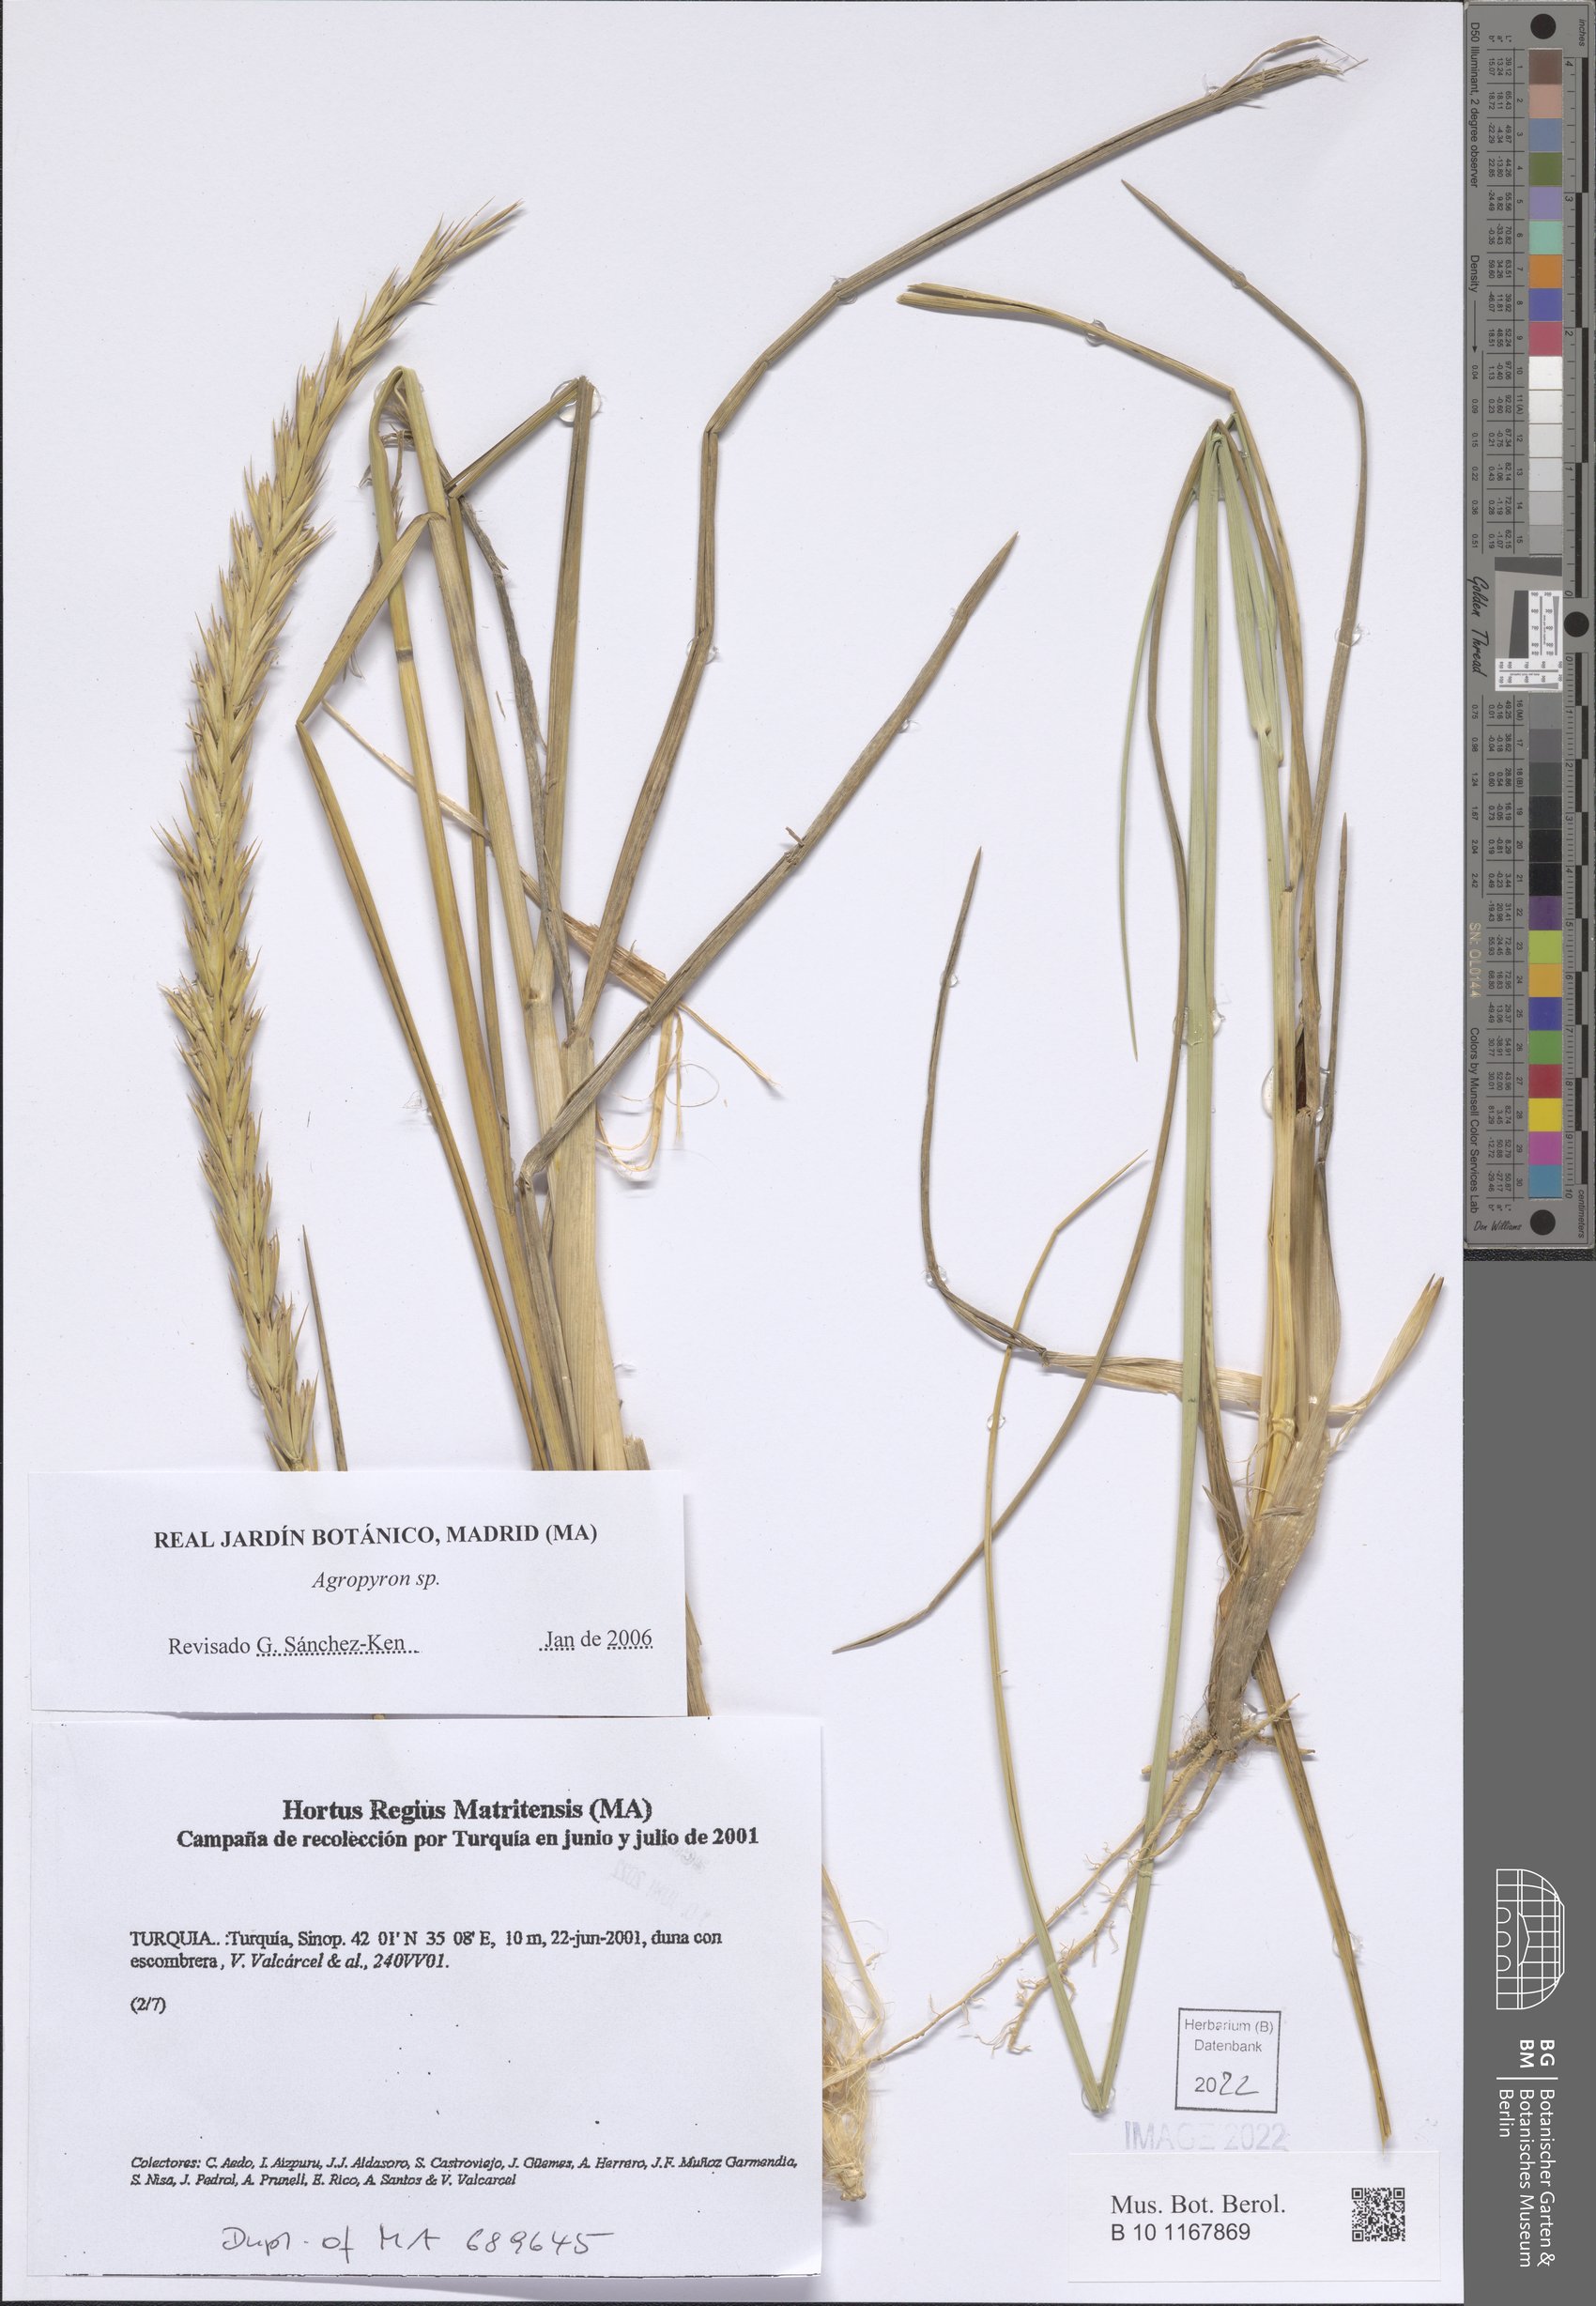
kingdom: Plantae
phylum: Tracheophyta
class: Liliopsida
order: Poales
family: Poaceae
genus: Agropyron
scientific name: Agropyron
